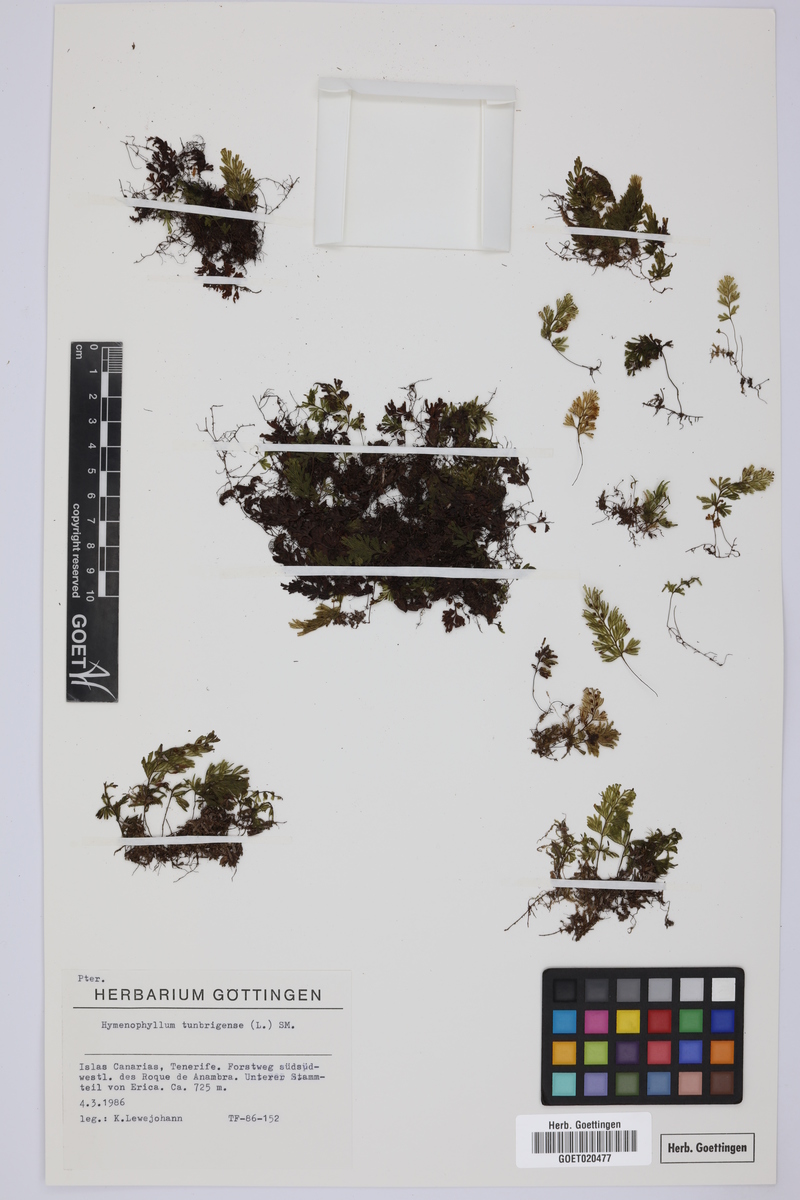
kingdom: Plantae
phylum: Tracheophyta
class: Polypodiopsida
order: Hymenophyllales
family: Hymenophyllaceae
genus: Hymenophyllum
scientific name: Hymenophyllum tunbrigense
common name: Tunbridge filmy fern
